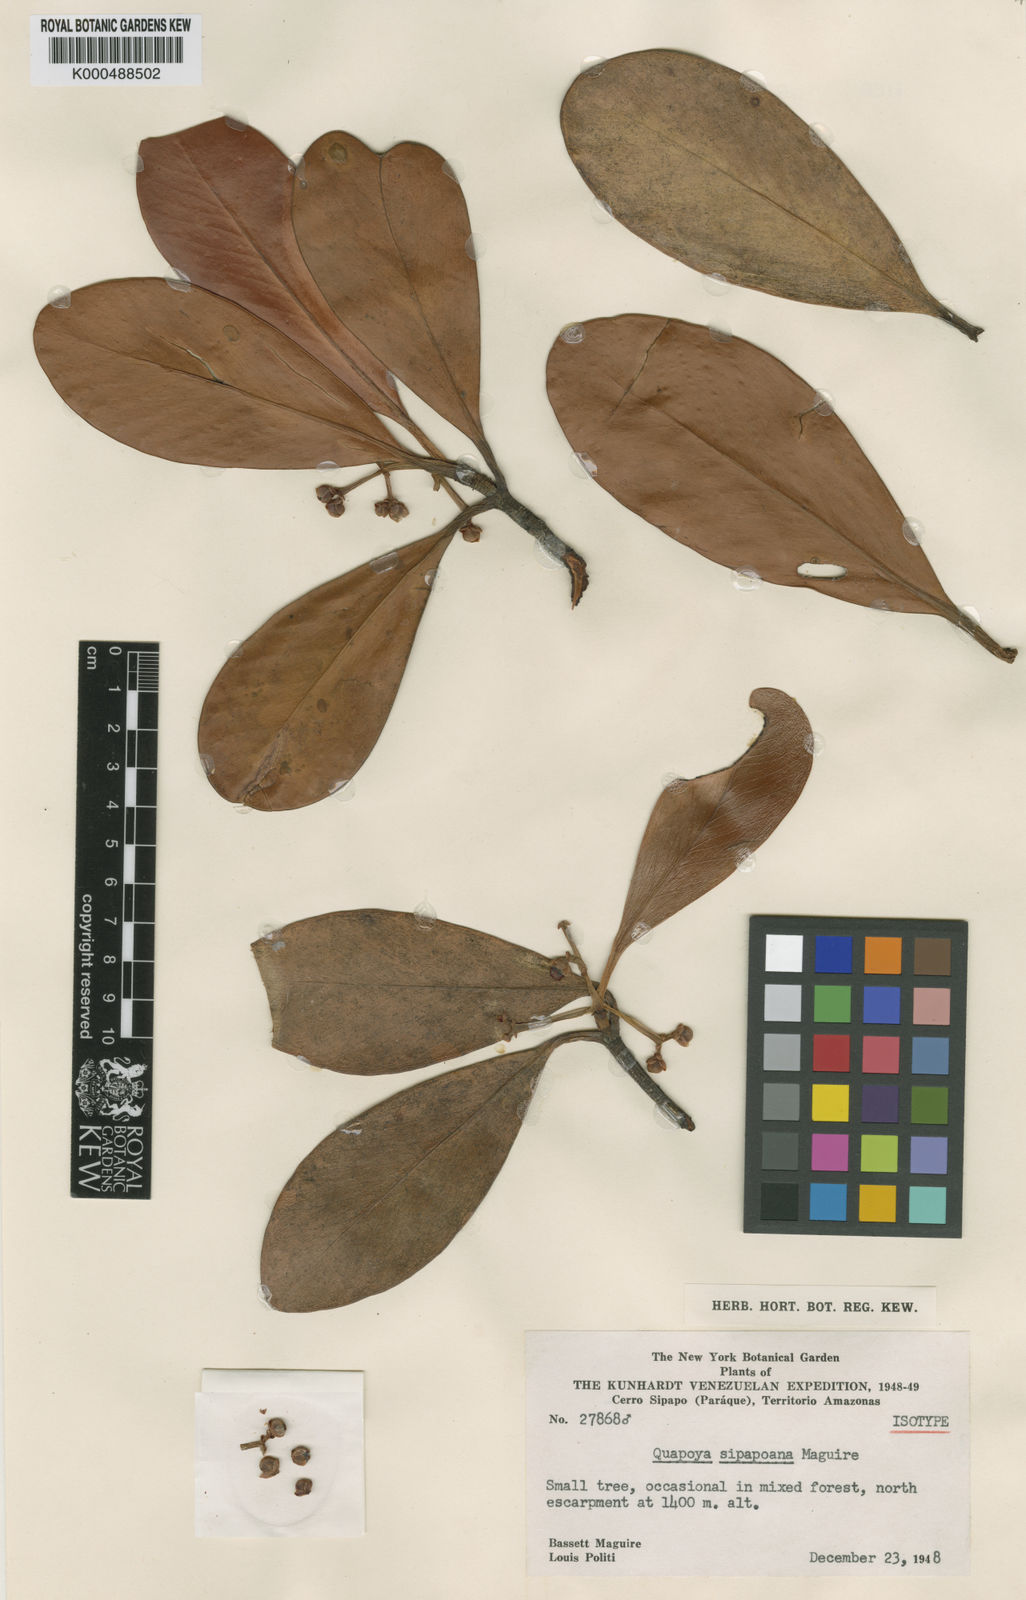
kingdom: Plantae
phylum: Tracheophyta
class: Magnoliopsida
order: Malpighiales
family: Clusiaceae
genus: Clusia
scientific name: Clusia sipapoana
